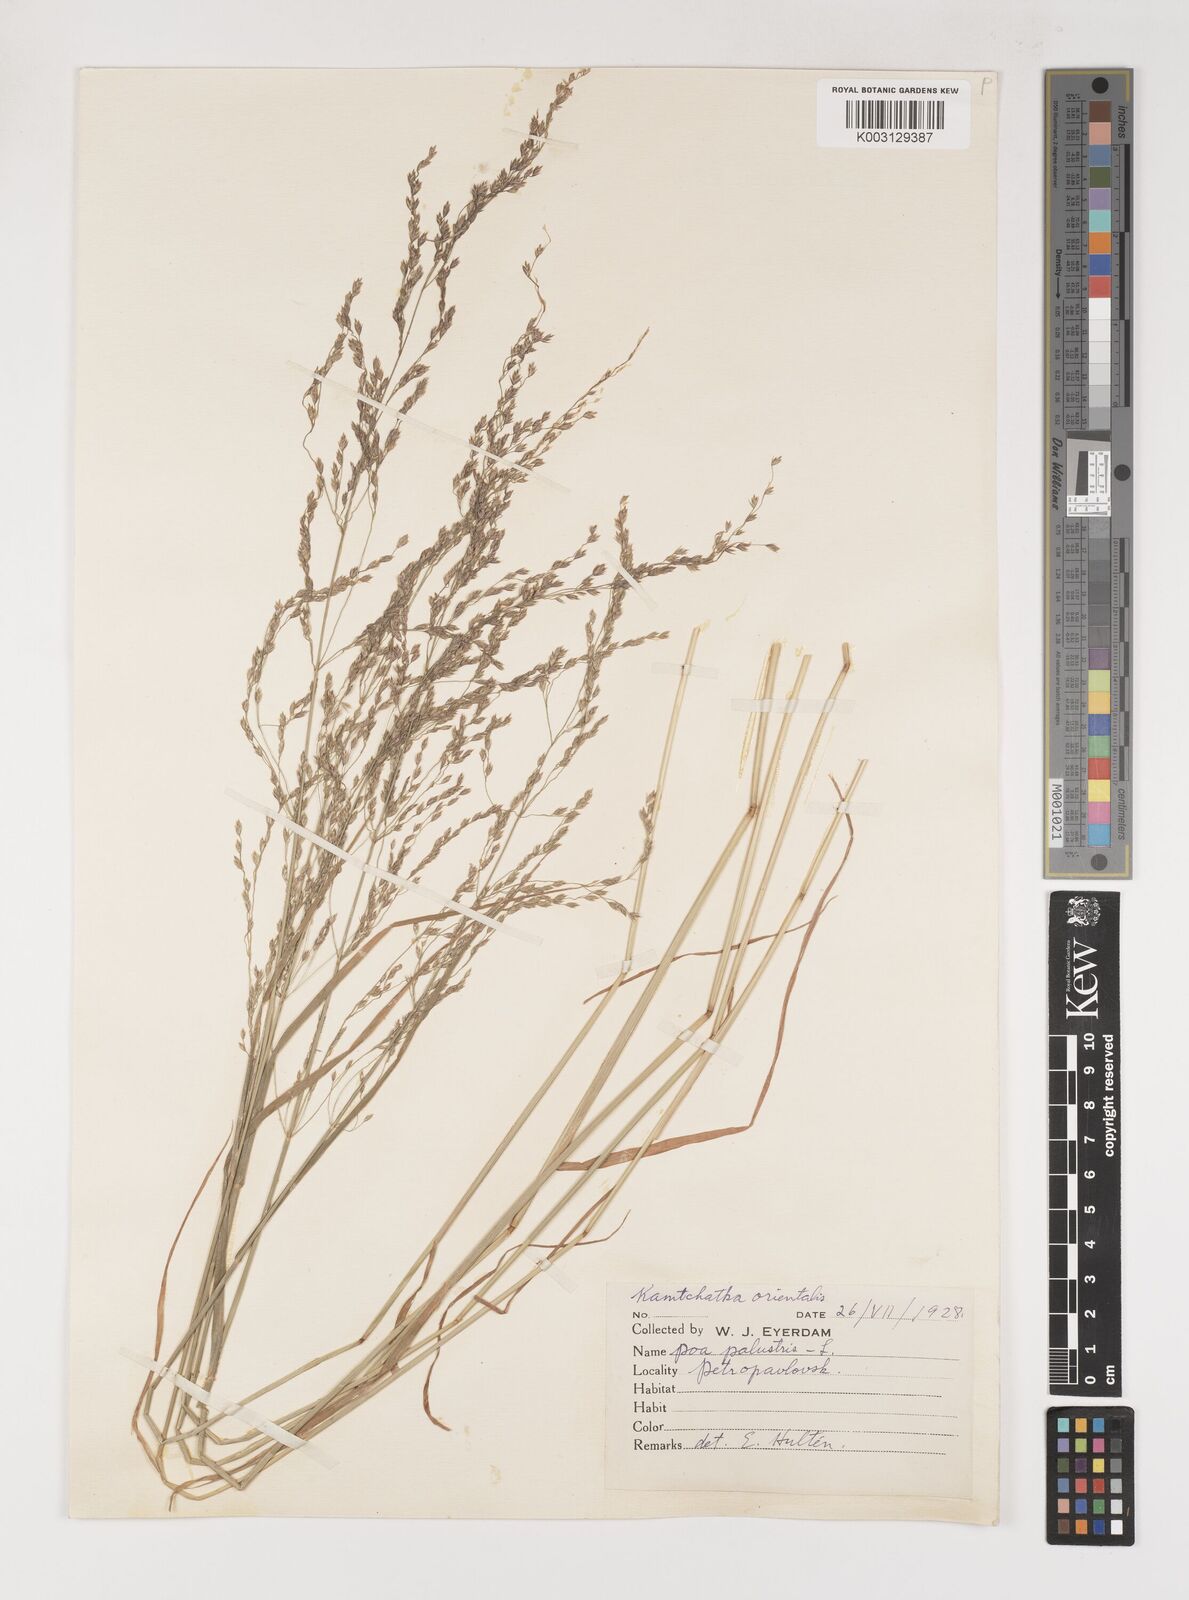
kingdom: Plantae
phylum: Tracheophyta
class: Liliopsida
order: Poales
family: Poaceae
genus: Poa
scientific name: Poa palustris
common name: Swamp meadow-grass
